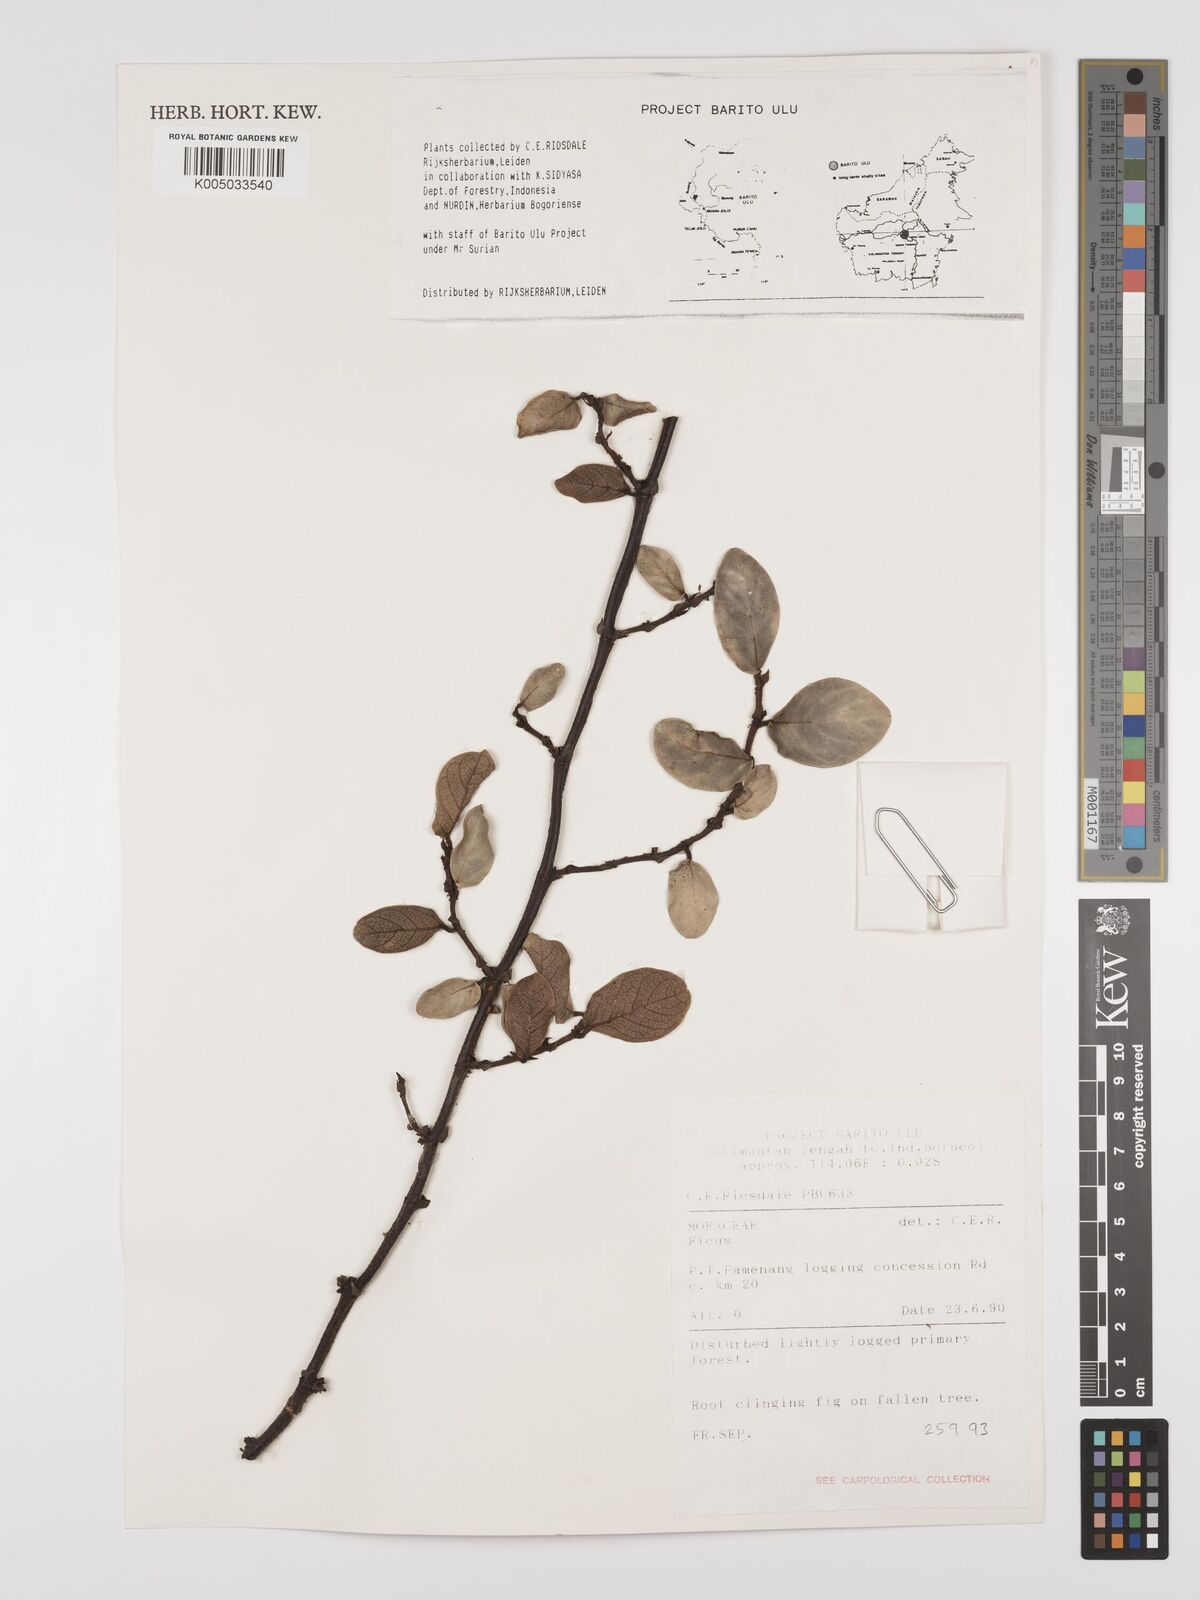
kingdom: Plantae
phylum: Tracheophyta
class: Magnoliopsida
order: Rosales
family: Moraceae
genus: Ficus
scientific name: Ficus
